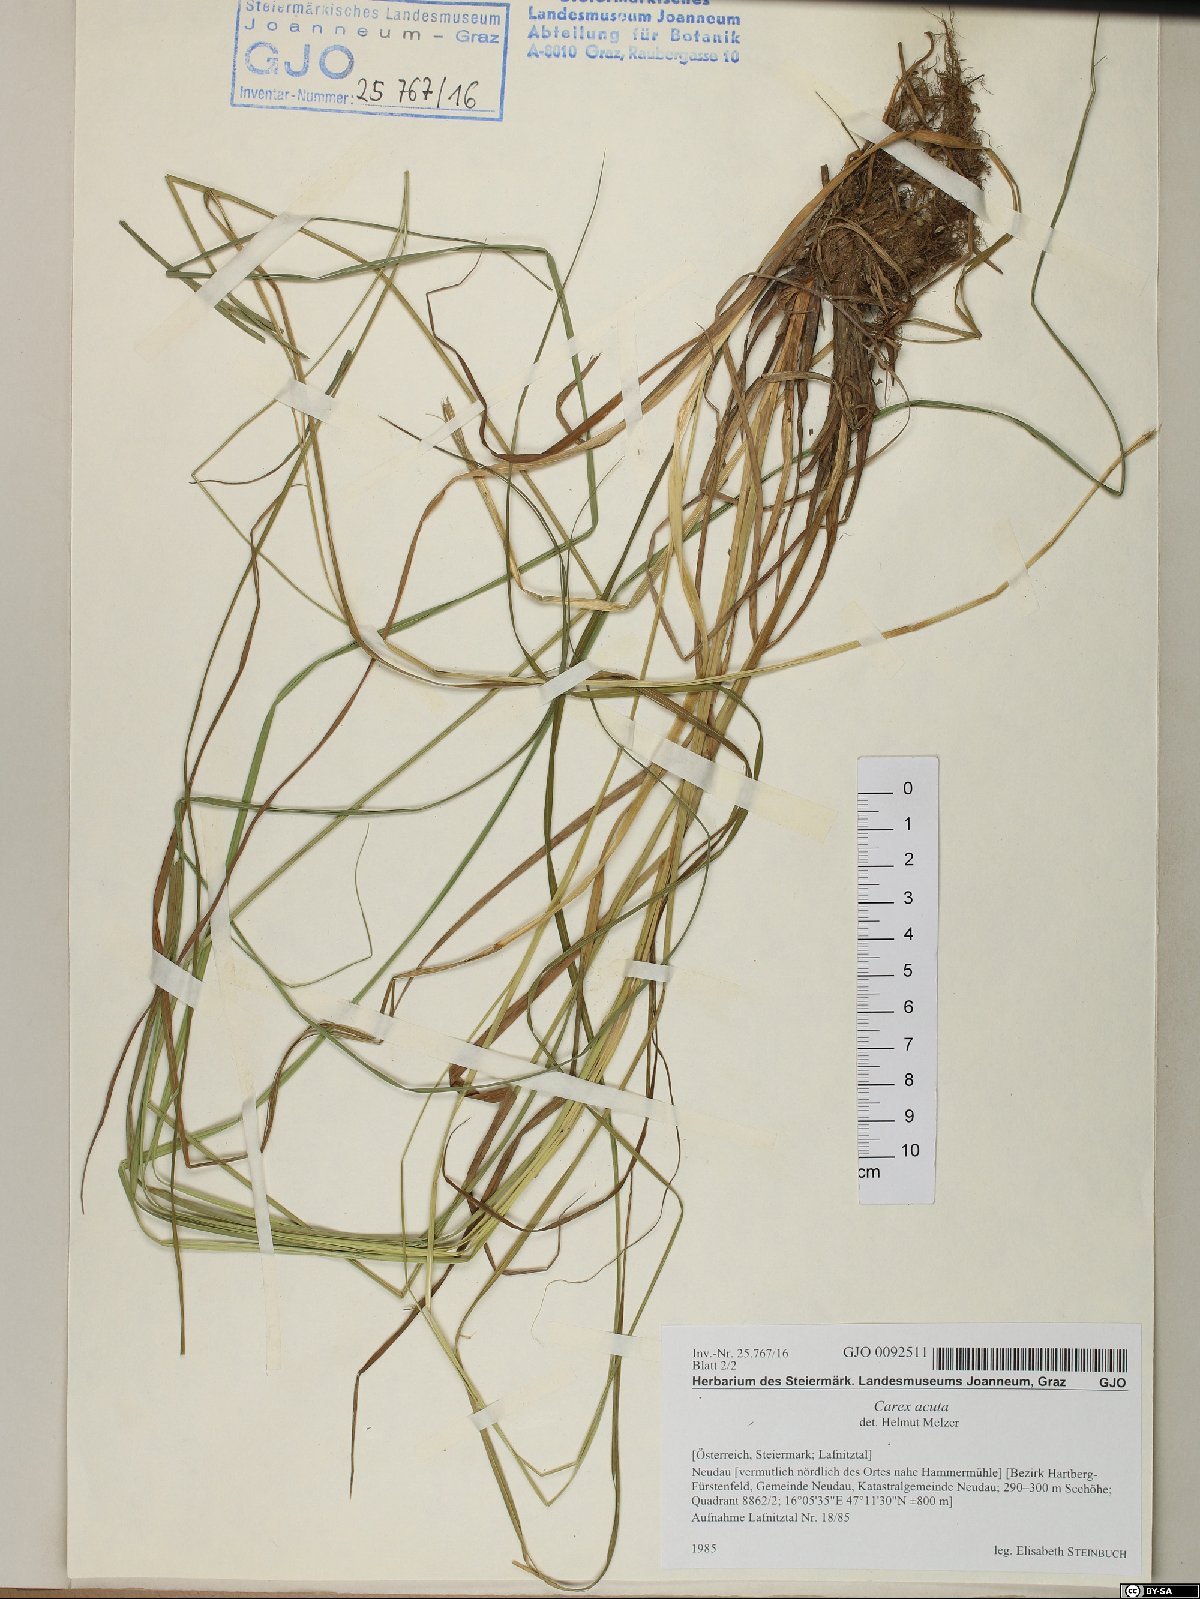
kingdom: Plantae
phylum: Tracheophyta
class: Liliopsida
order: Poales
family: Cyperaceae
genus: Carex
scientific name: Carex acuta
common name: Slender tufted-sedge
